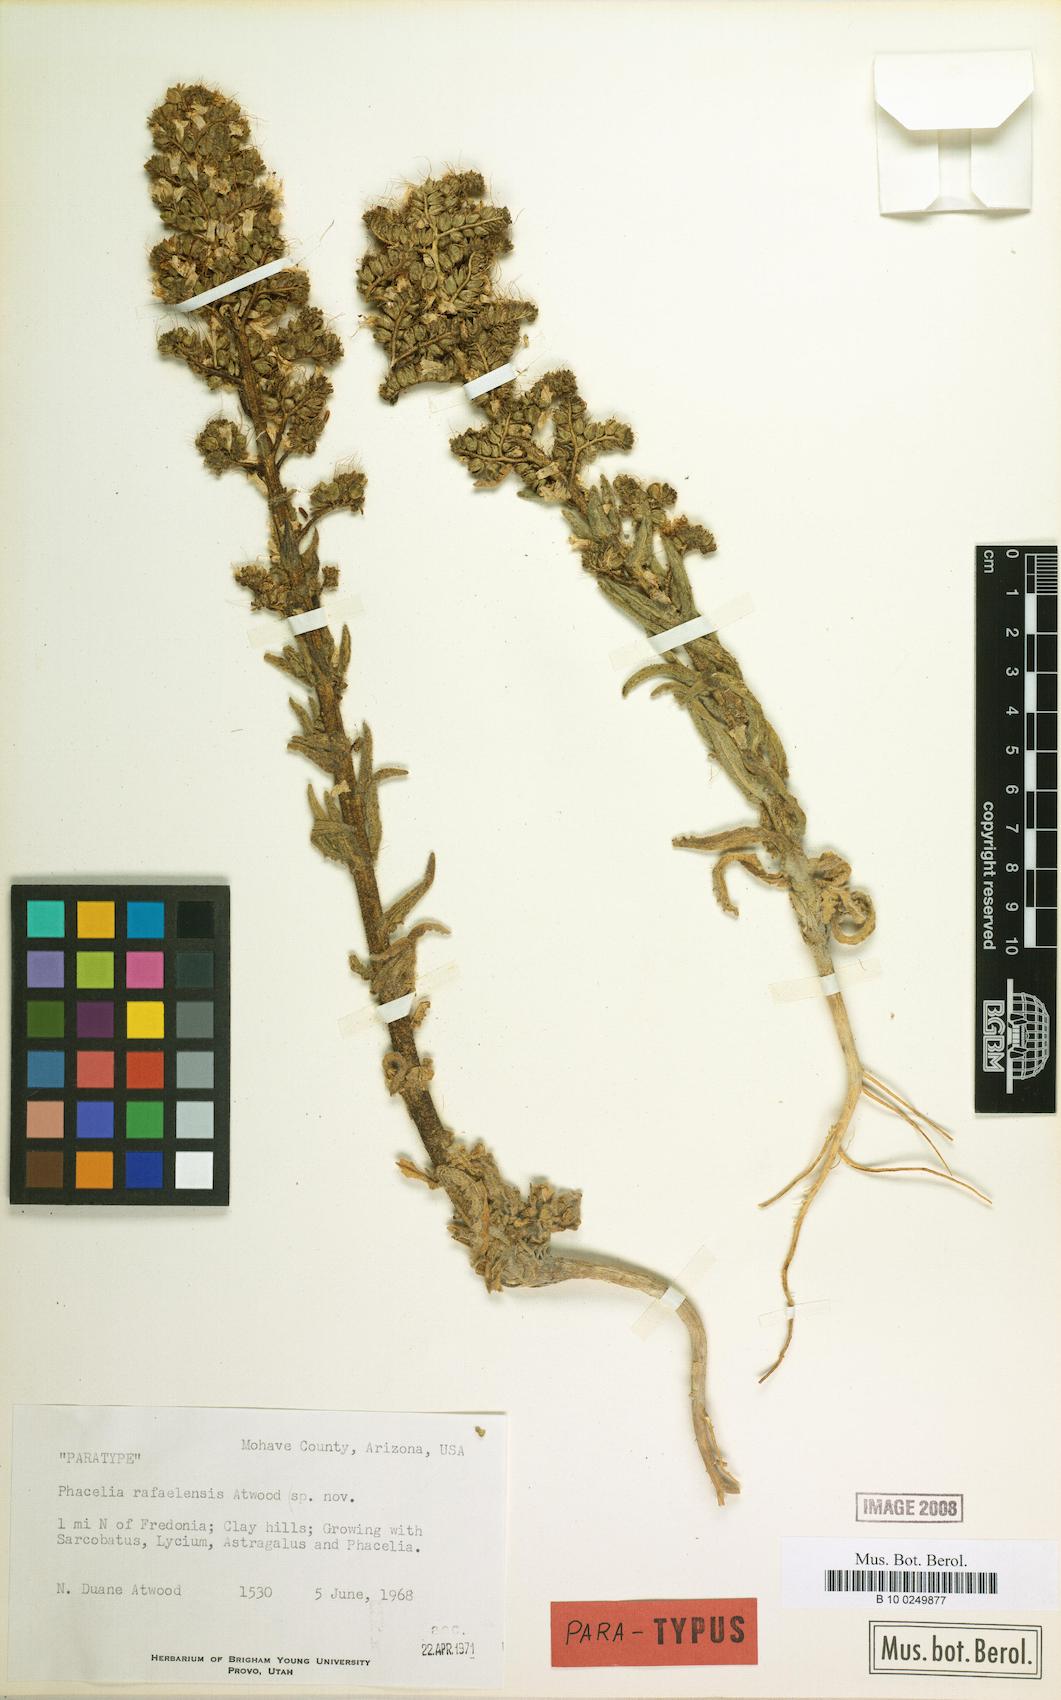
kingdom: Plantae
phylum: Tracheophyta
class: Magnoliopsida
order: Boraginales
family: Hydrophyllaceae
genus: Phacelia
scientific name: Phacelia rafaelensis
